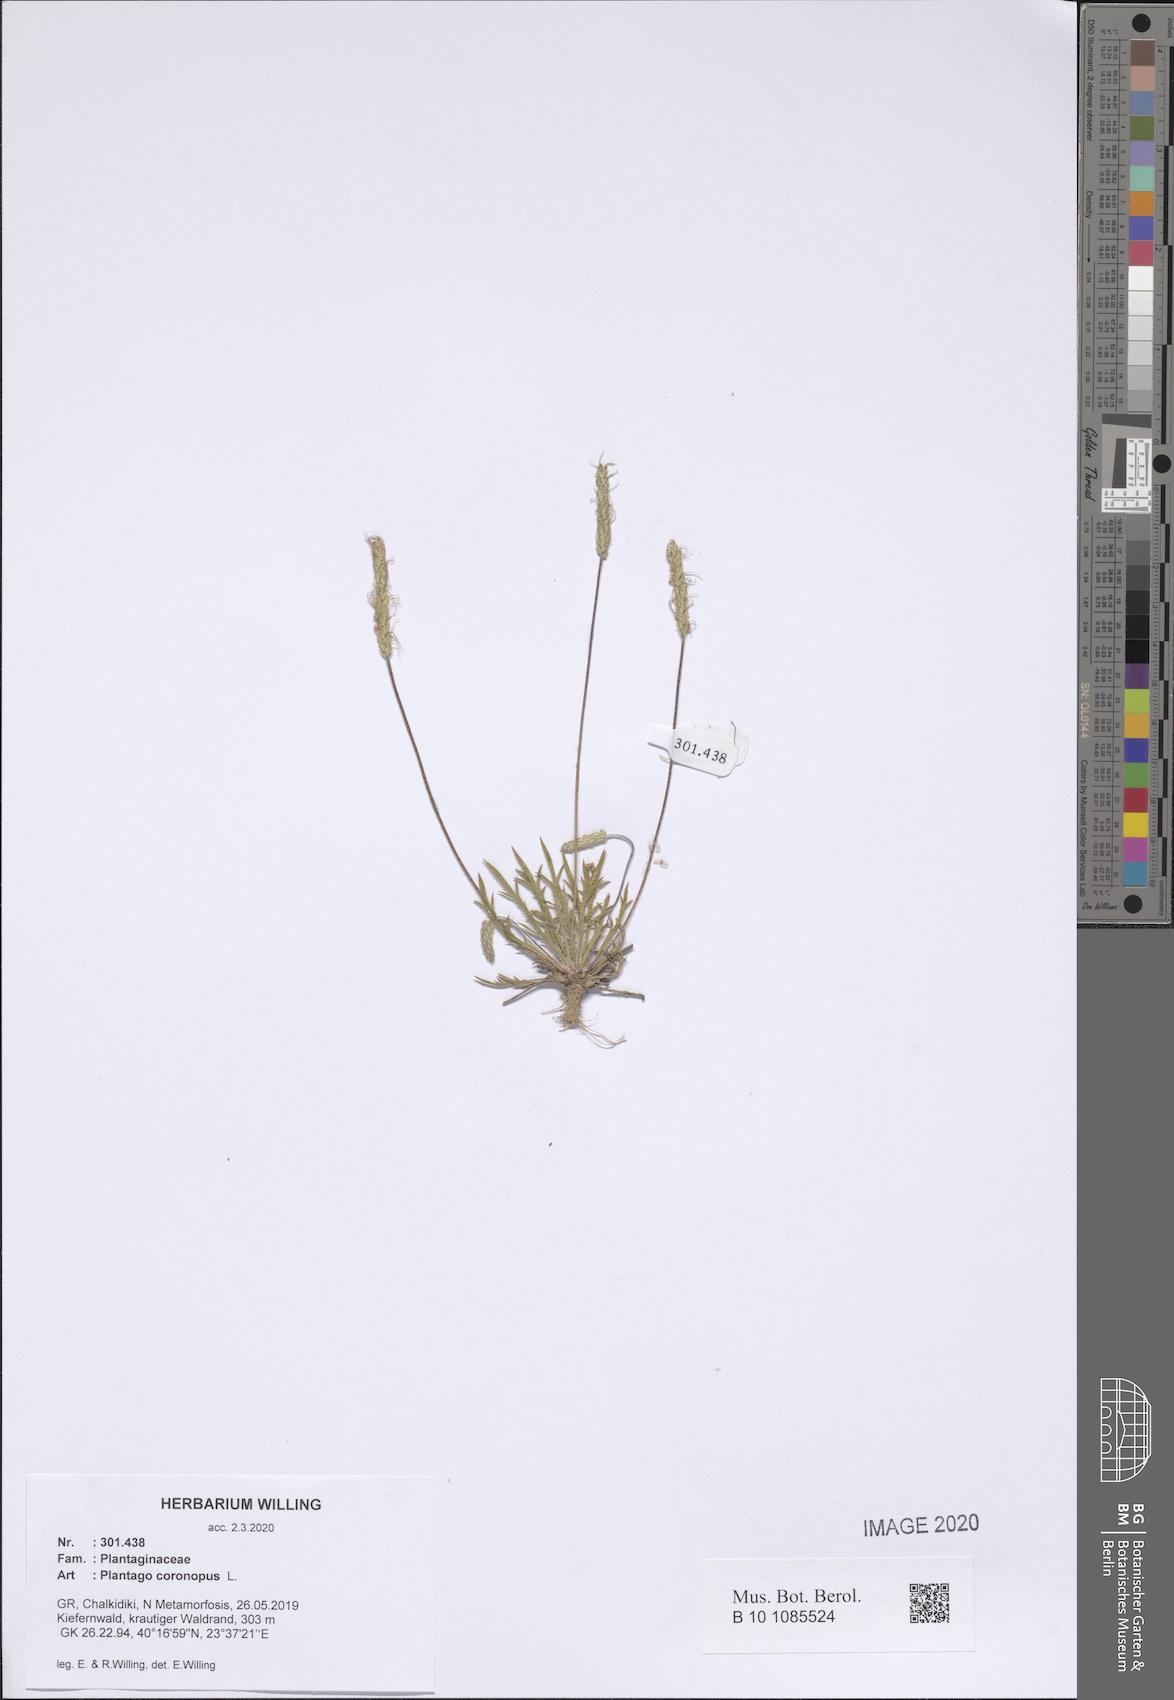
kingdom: Plantae
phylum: Tracheophyta
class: Magnoliopsida
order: Lamiales
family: Plantaginaceae
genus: Plantago
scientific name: Plantago coronopus
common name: Buck's-horn plantain
